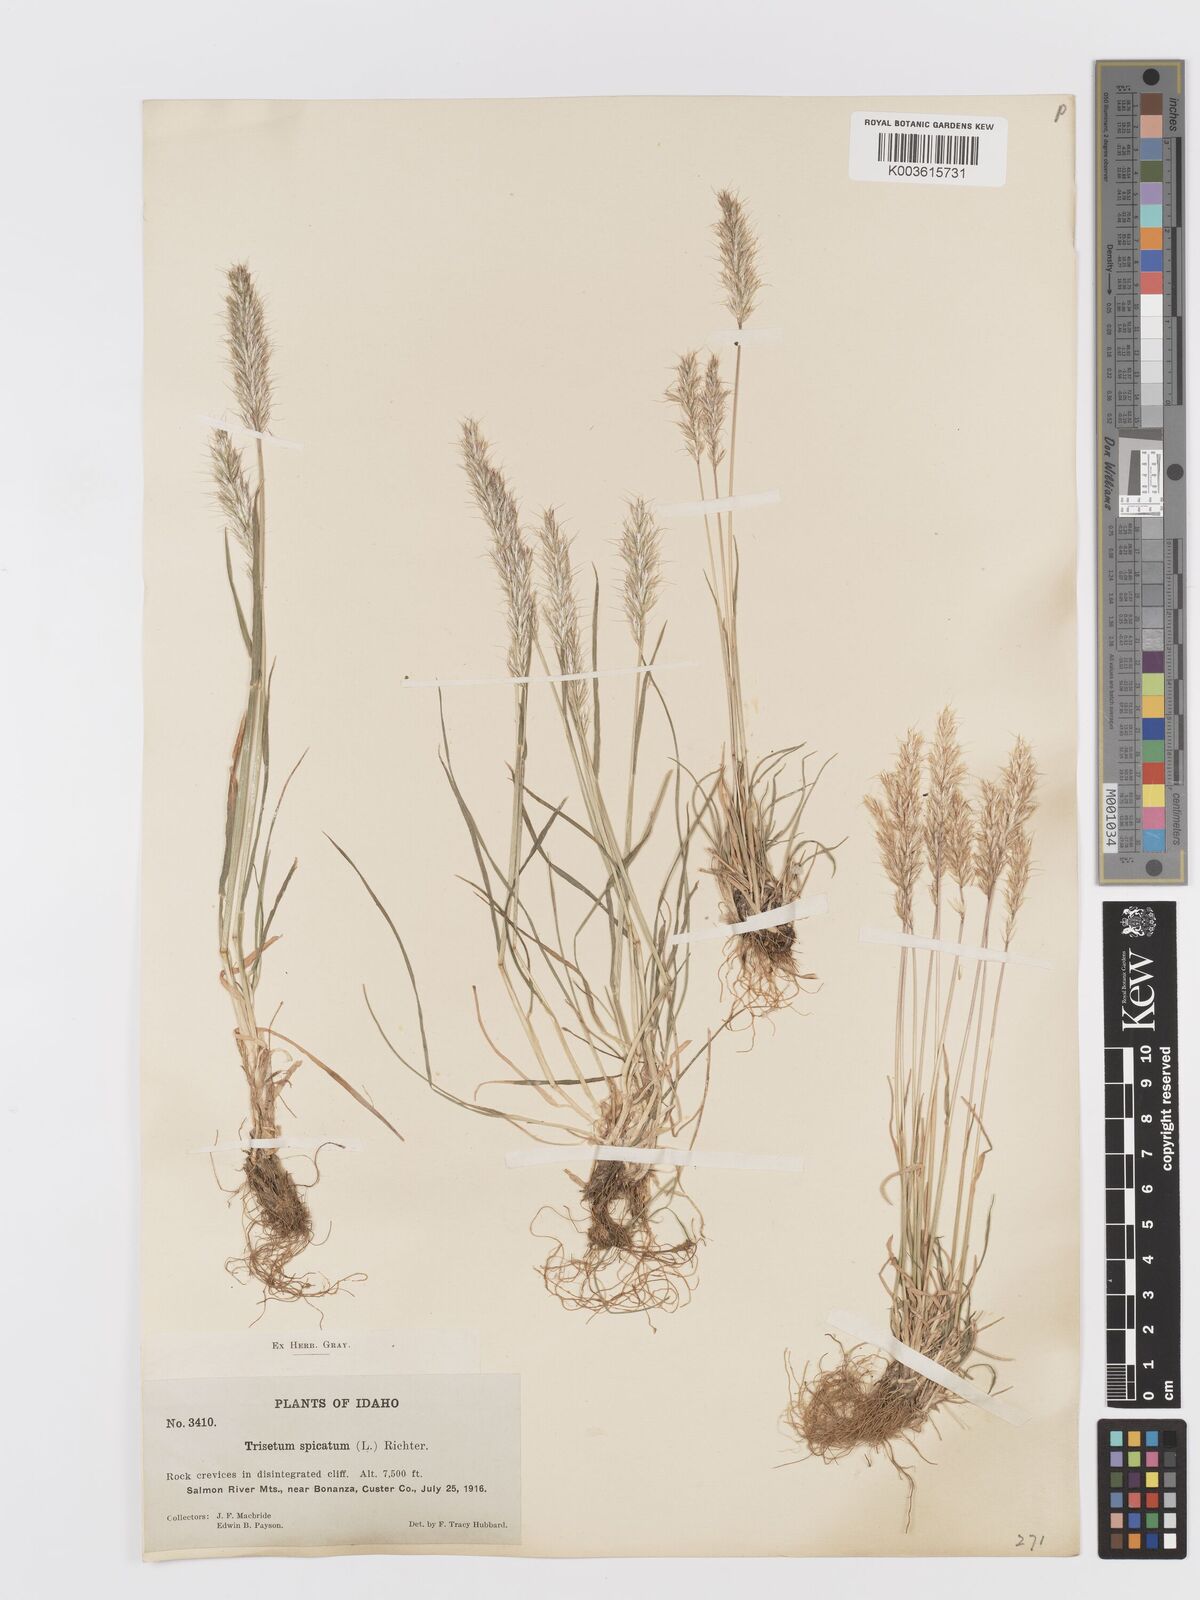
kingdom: Plantae
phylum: Tracheophyta
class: Liliopsida
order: Poales
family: Poaceae
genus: Koeleria
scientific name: Koeleria spicata
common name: Mountain trisetum
